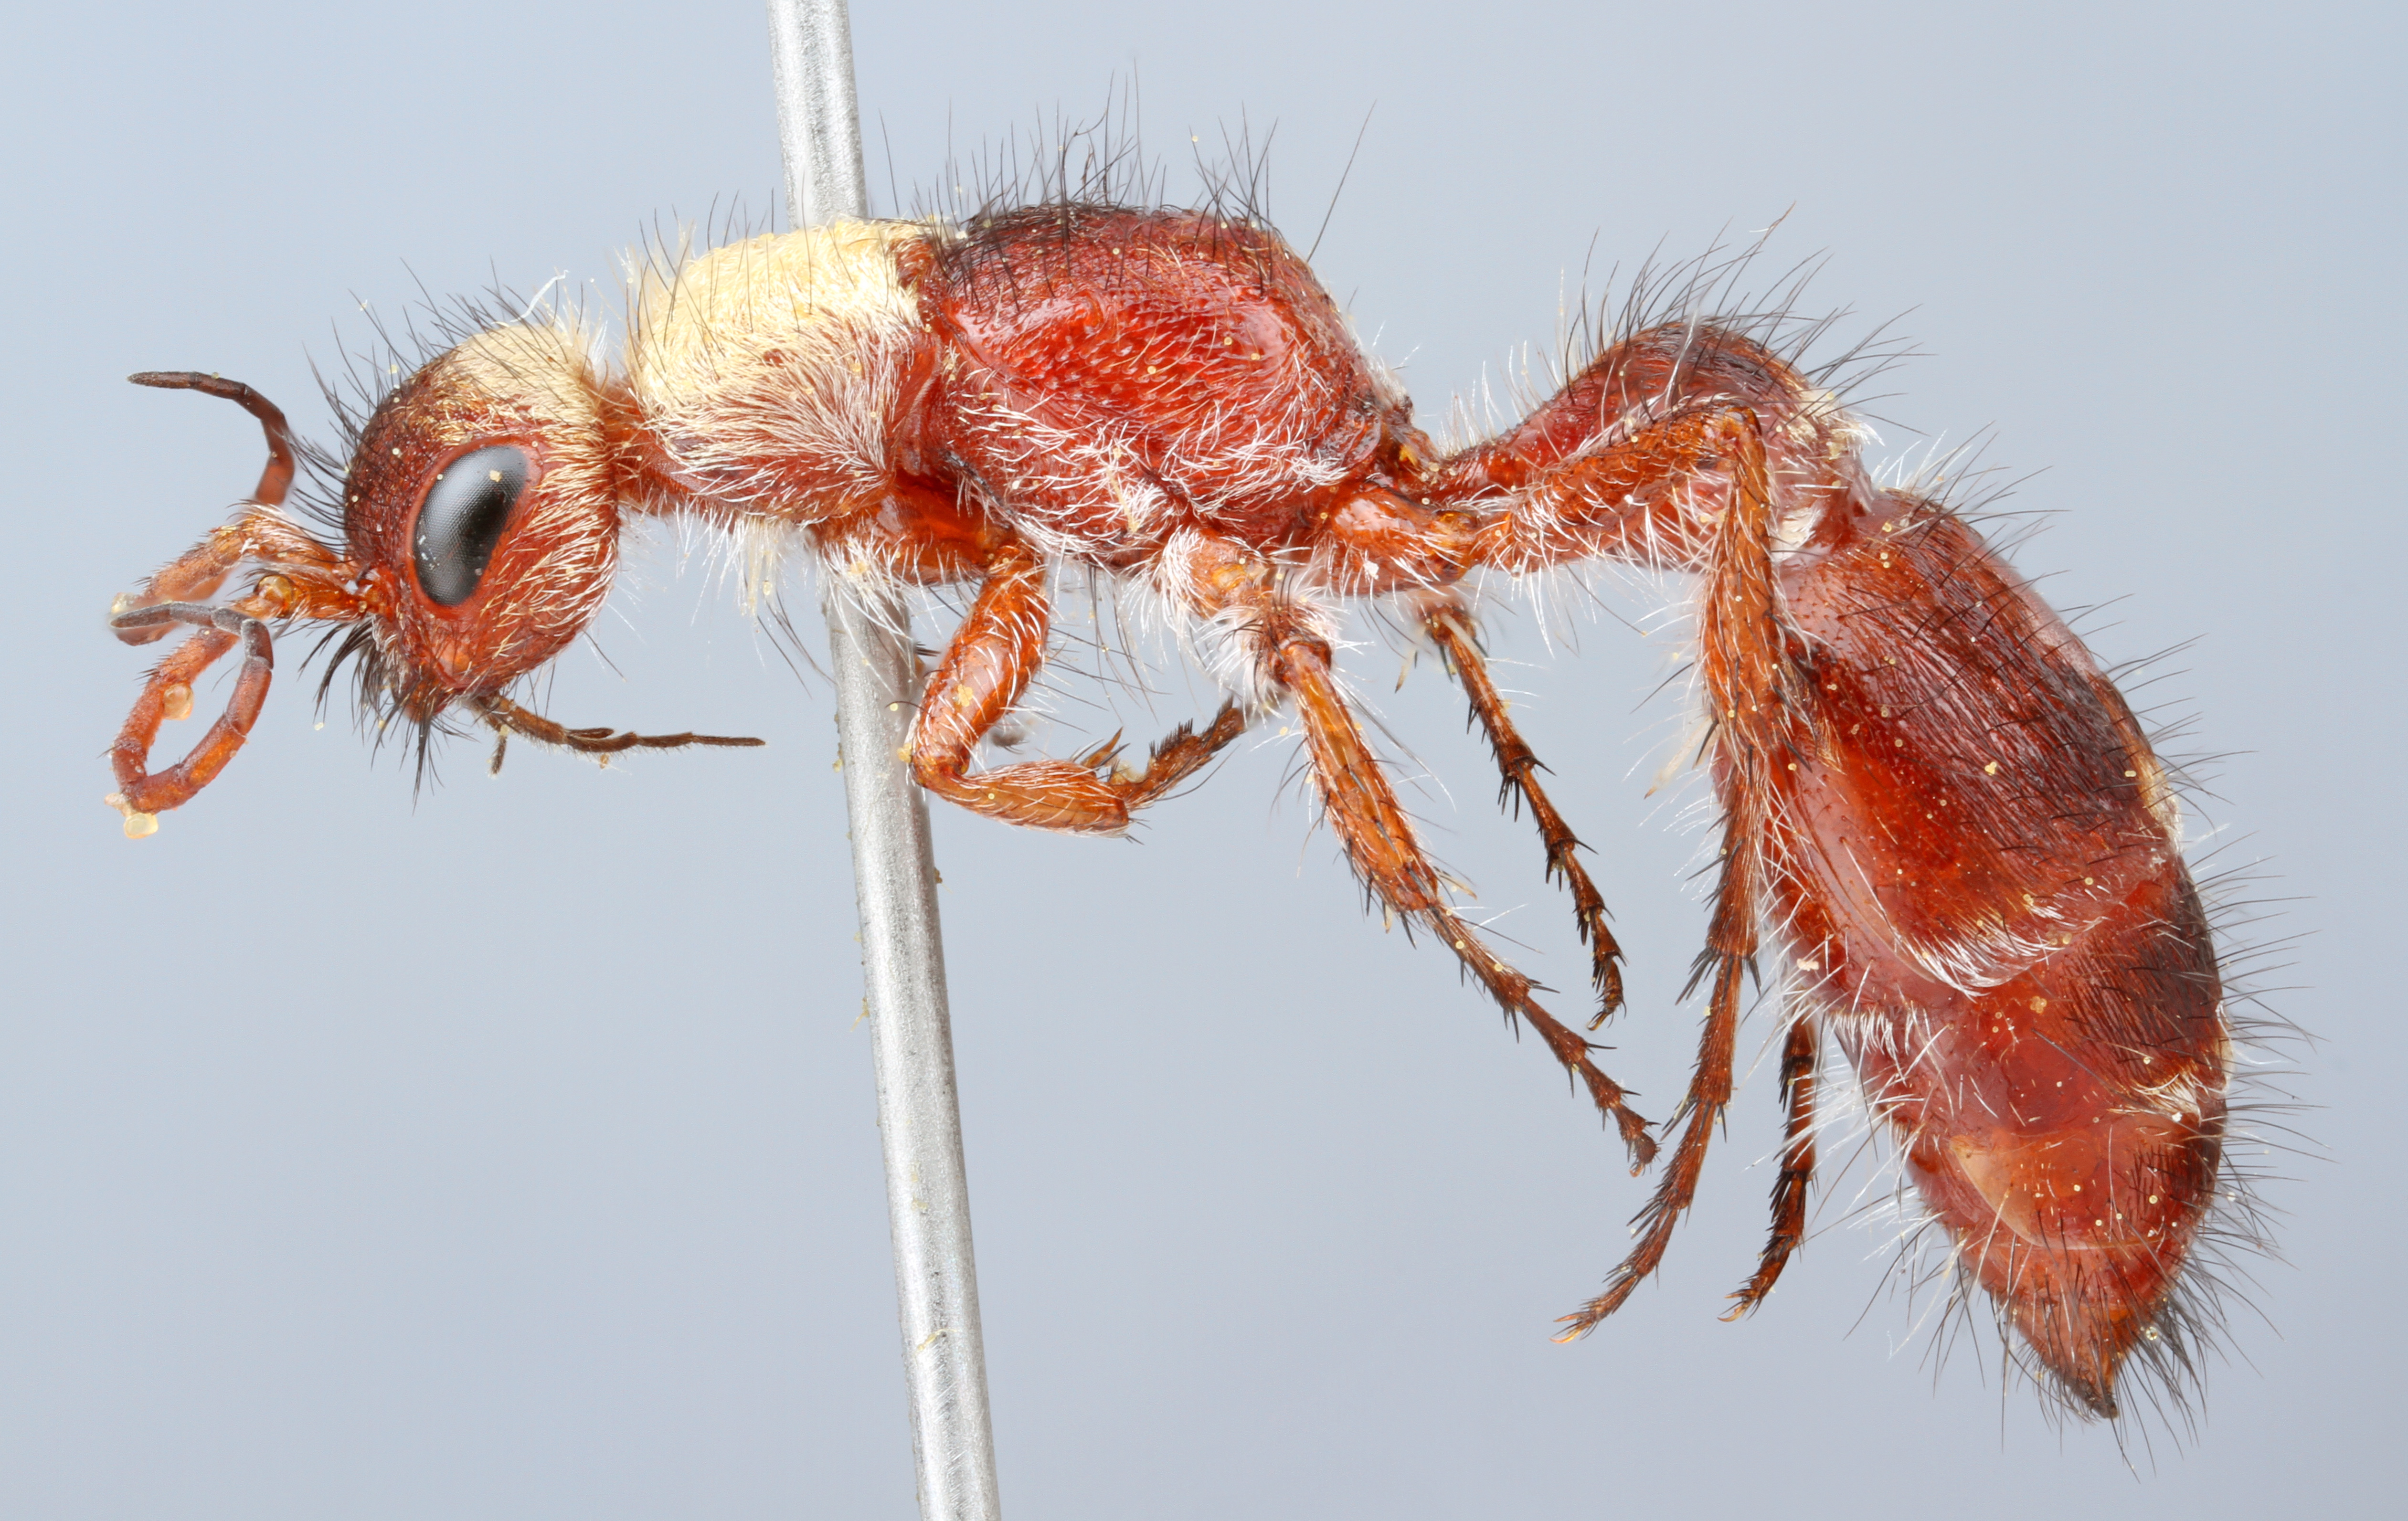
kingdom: Animalia
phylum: Arthropoda
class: Insecta
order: Hymenoptera
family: Mutillidae
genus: Typhoctes
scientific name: Typhoctes
